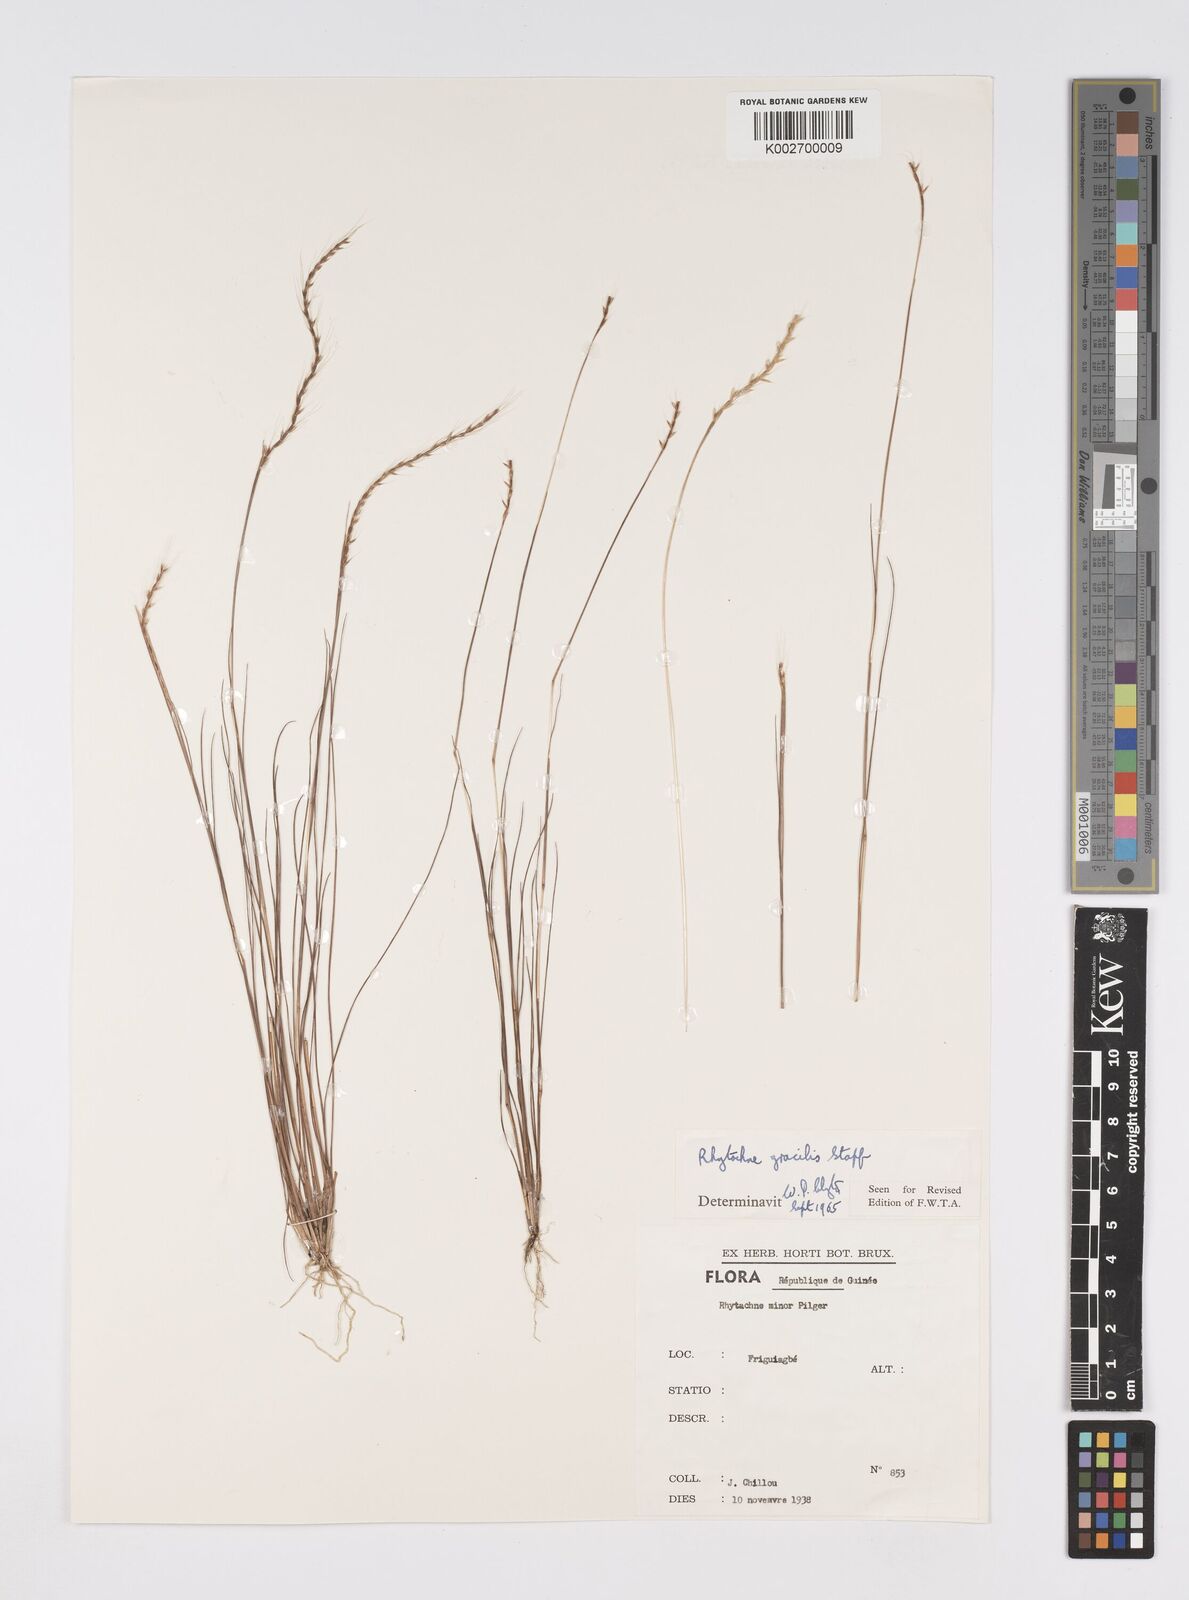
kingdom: Plantae
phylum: Tracheophyta
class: Liliopsida
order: Poales
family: Poaceae
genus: Rhytachne
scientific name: Rhytachne gracilis
